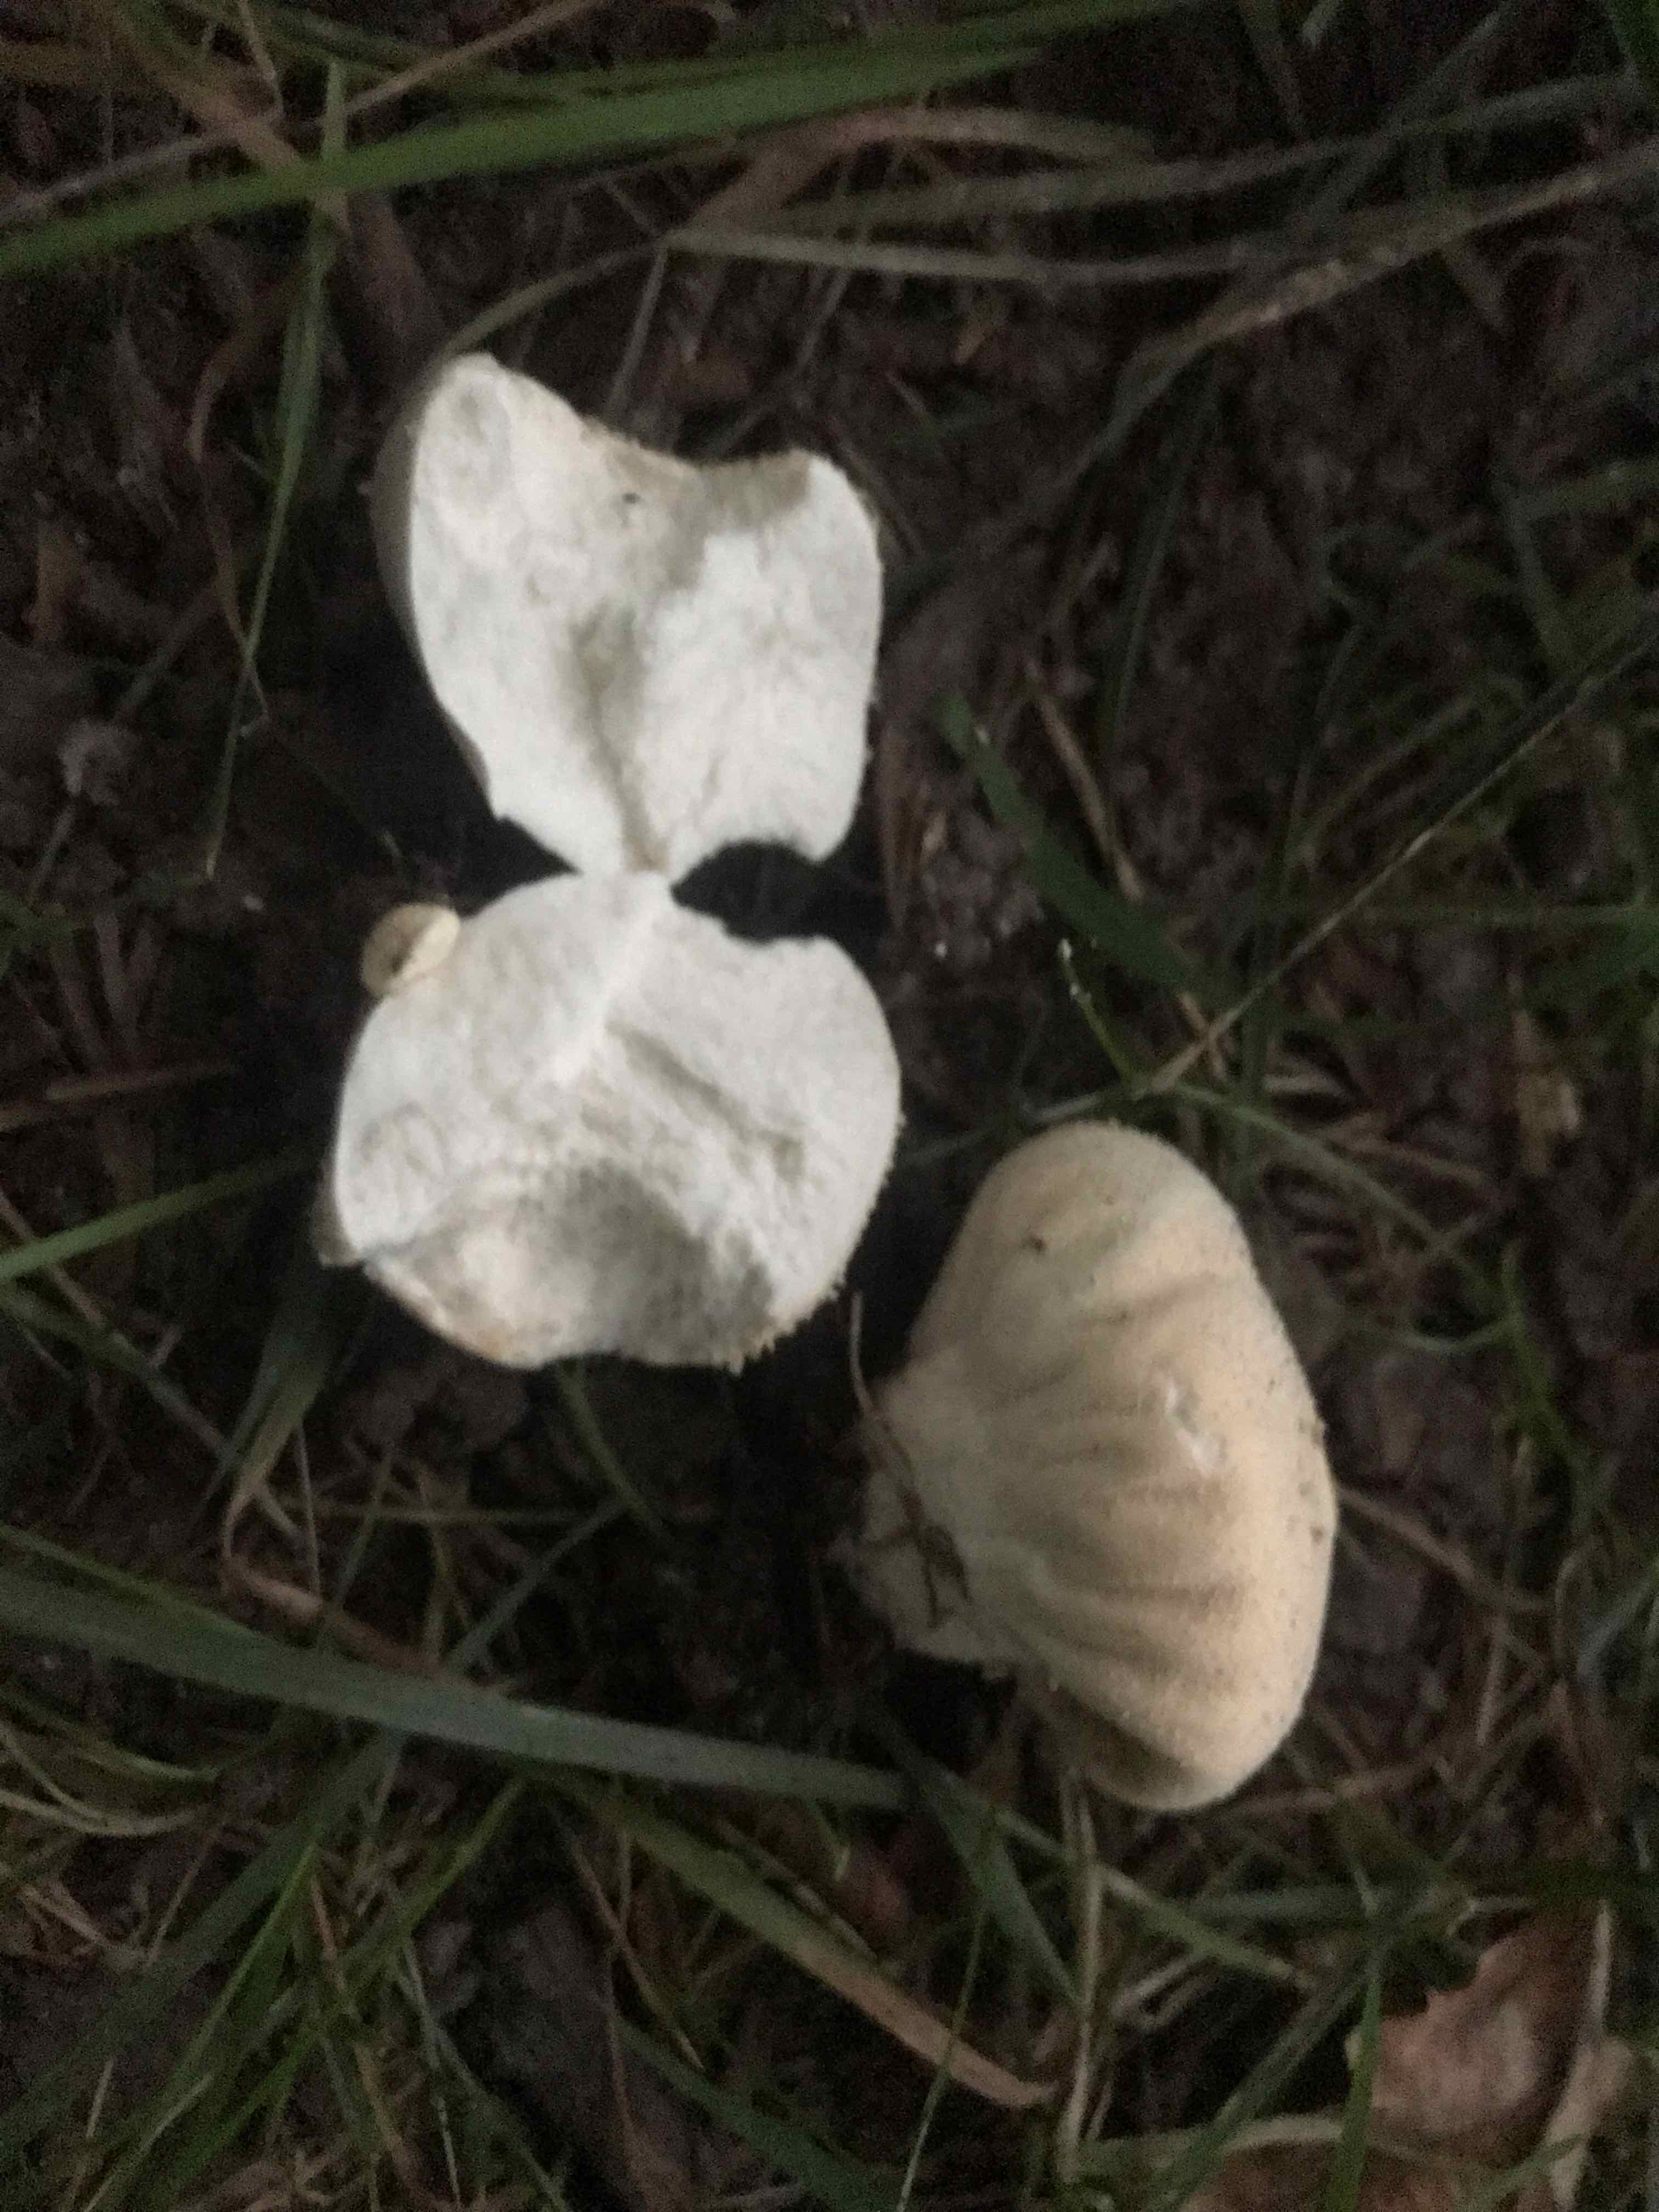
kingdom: Fungi
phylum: Basidiomycota
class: Agaricomycetes
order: Agaricales
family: Lycoperdaceae
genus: Lycoperdon
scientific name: Lycoperdon pratense
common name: flad støvbold
